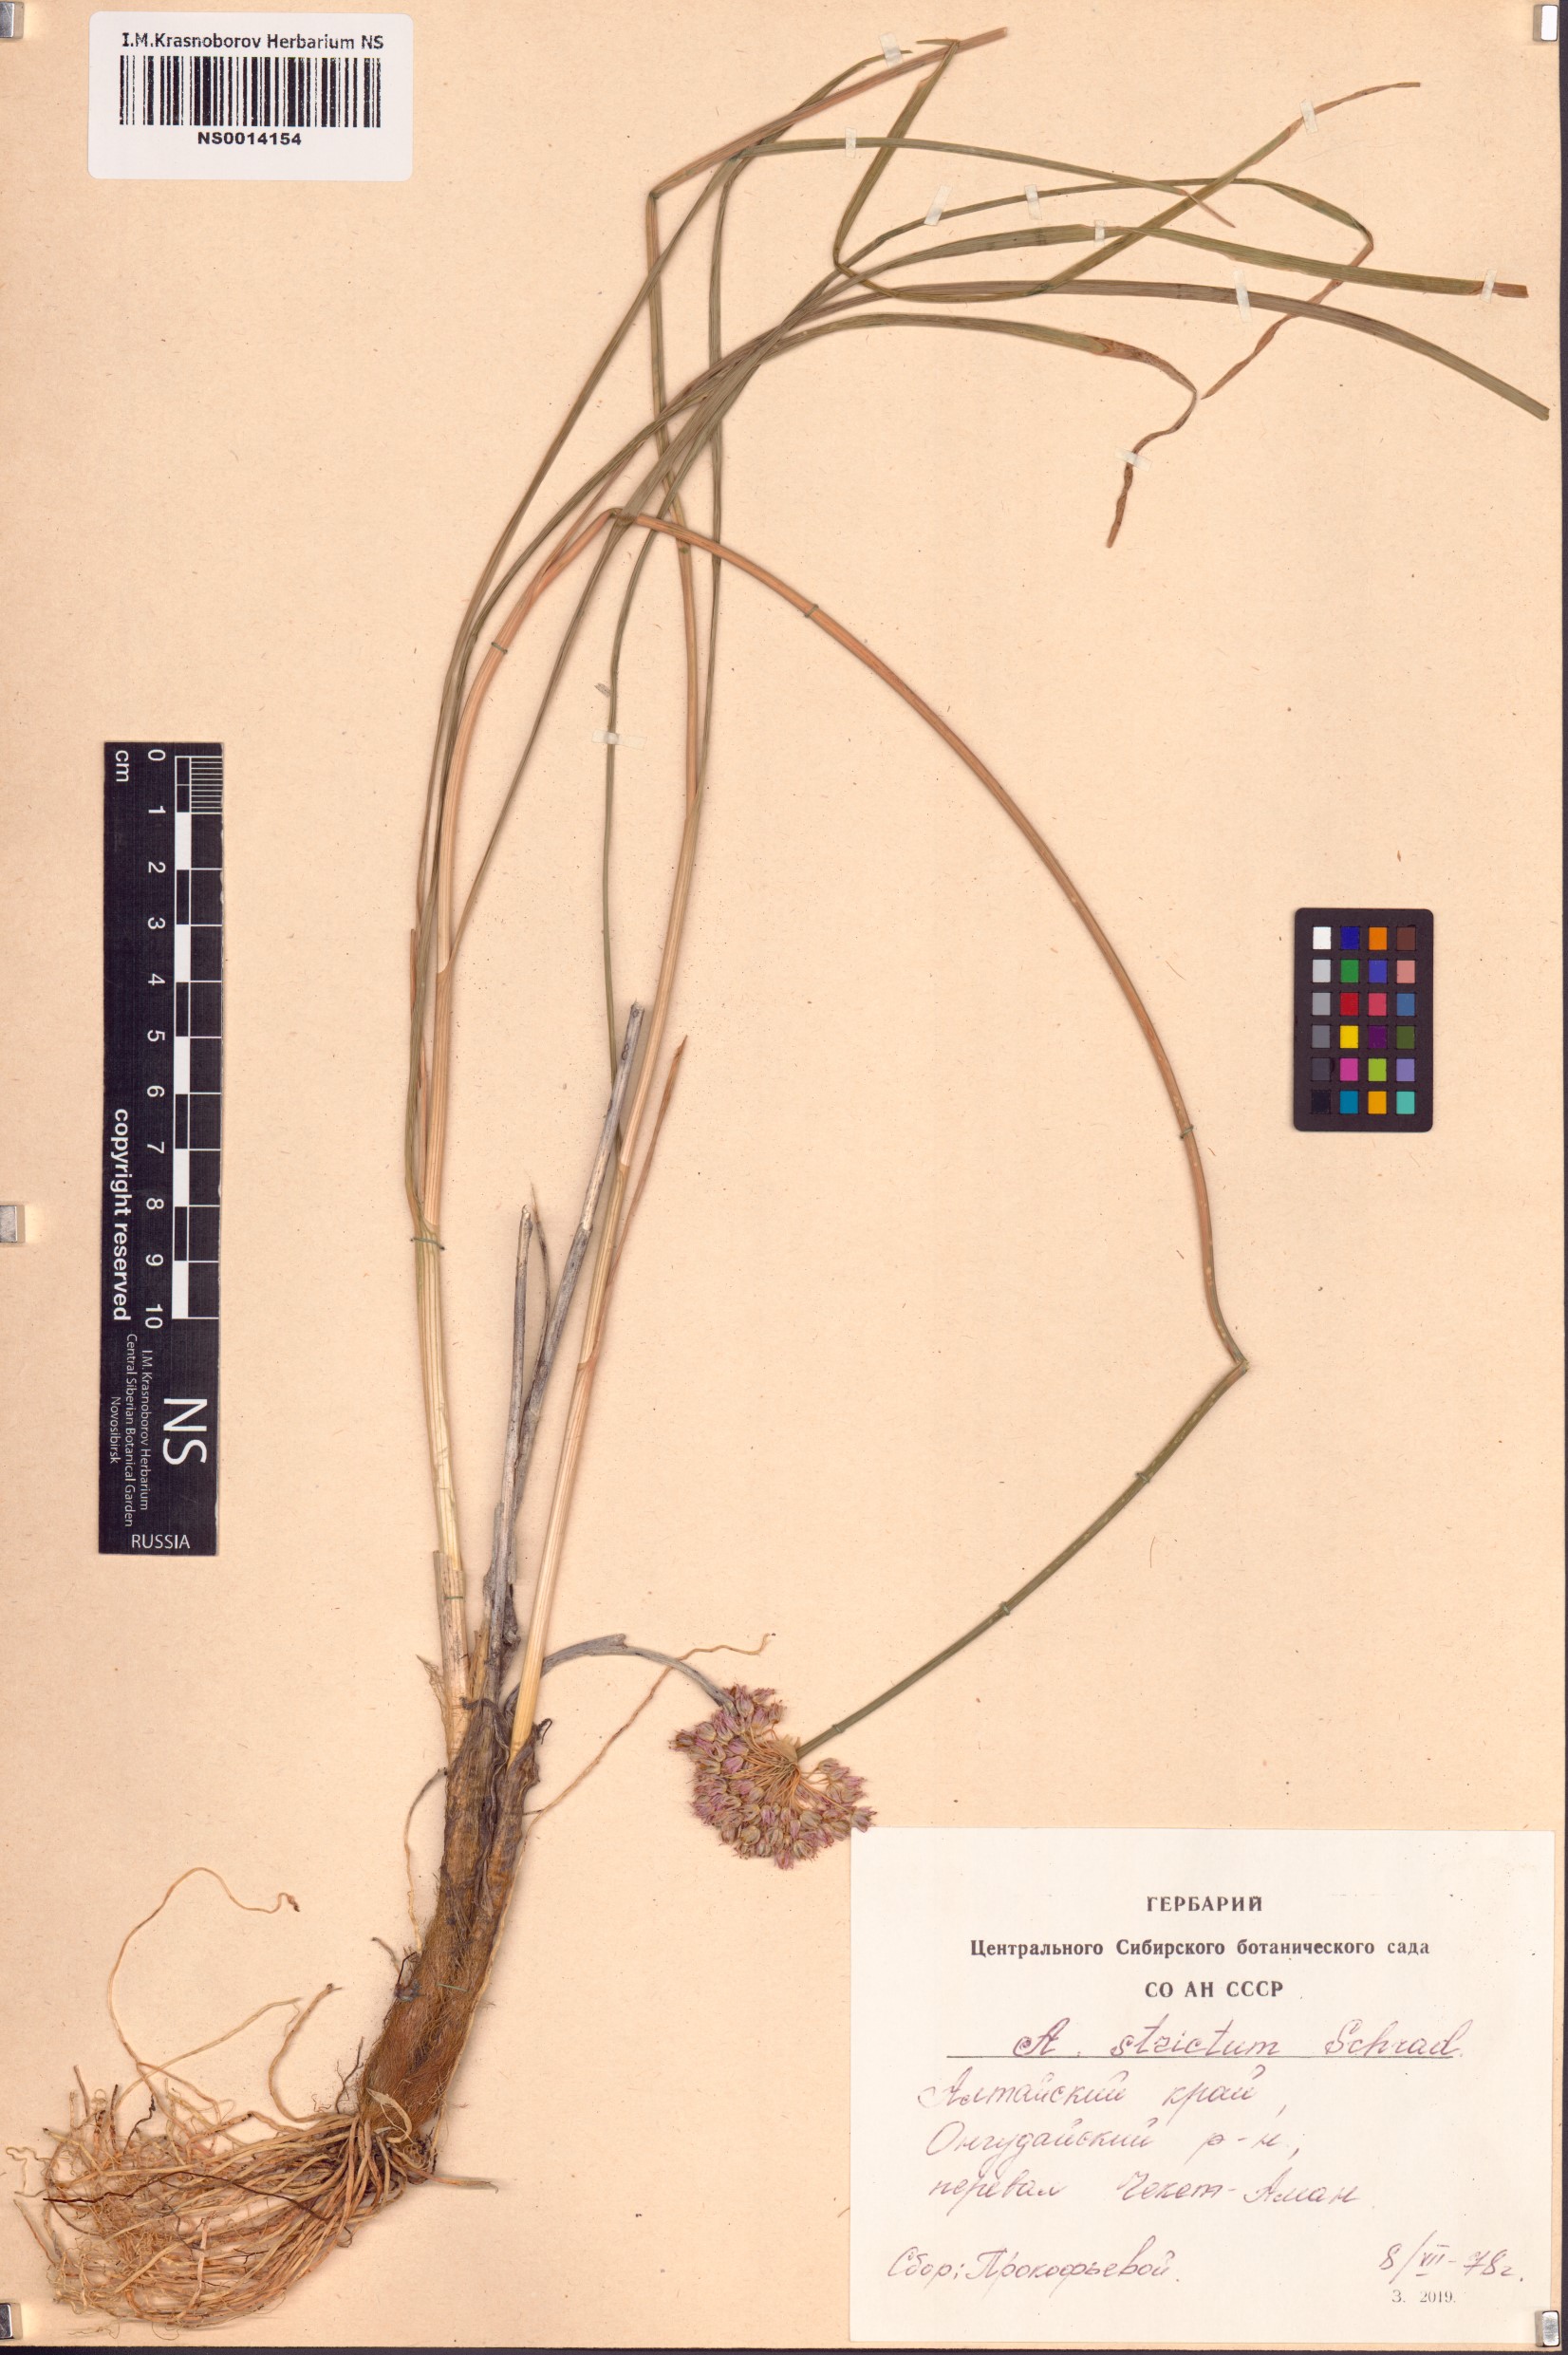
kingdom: Plantae
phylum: Tracheophyta
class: Liliopsida
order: Asparagales
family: Amaryllidaceae
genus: Allium
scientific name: Allium strictum
